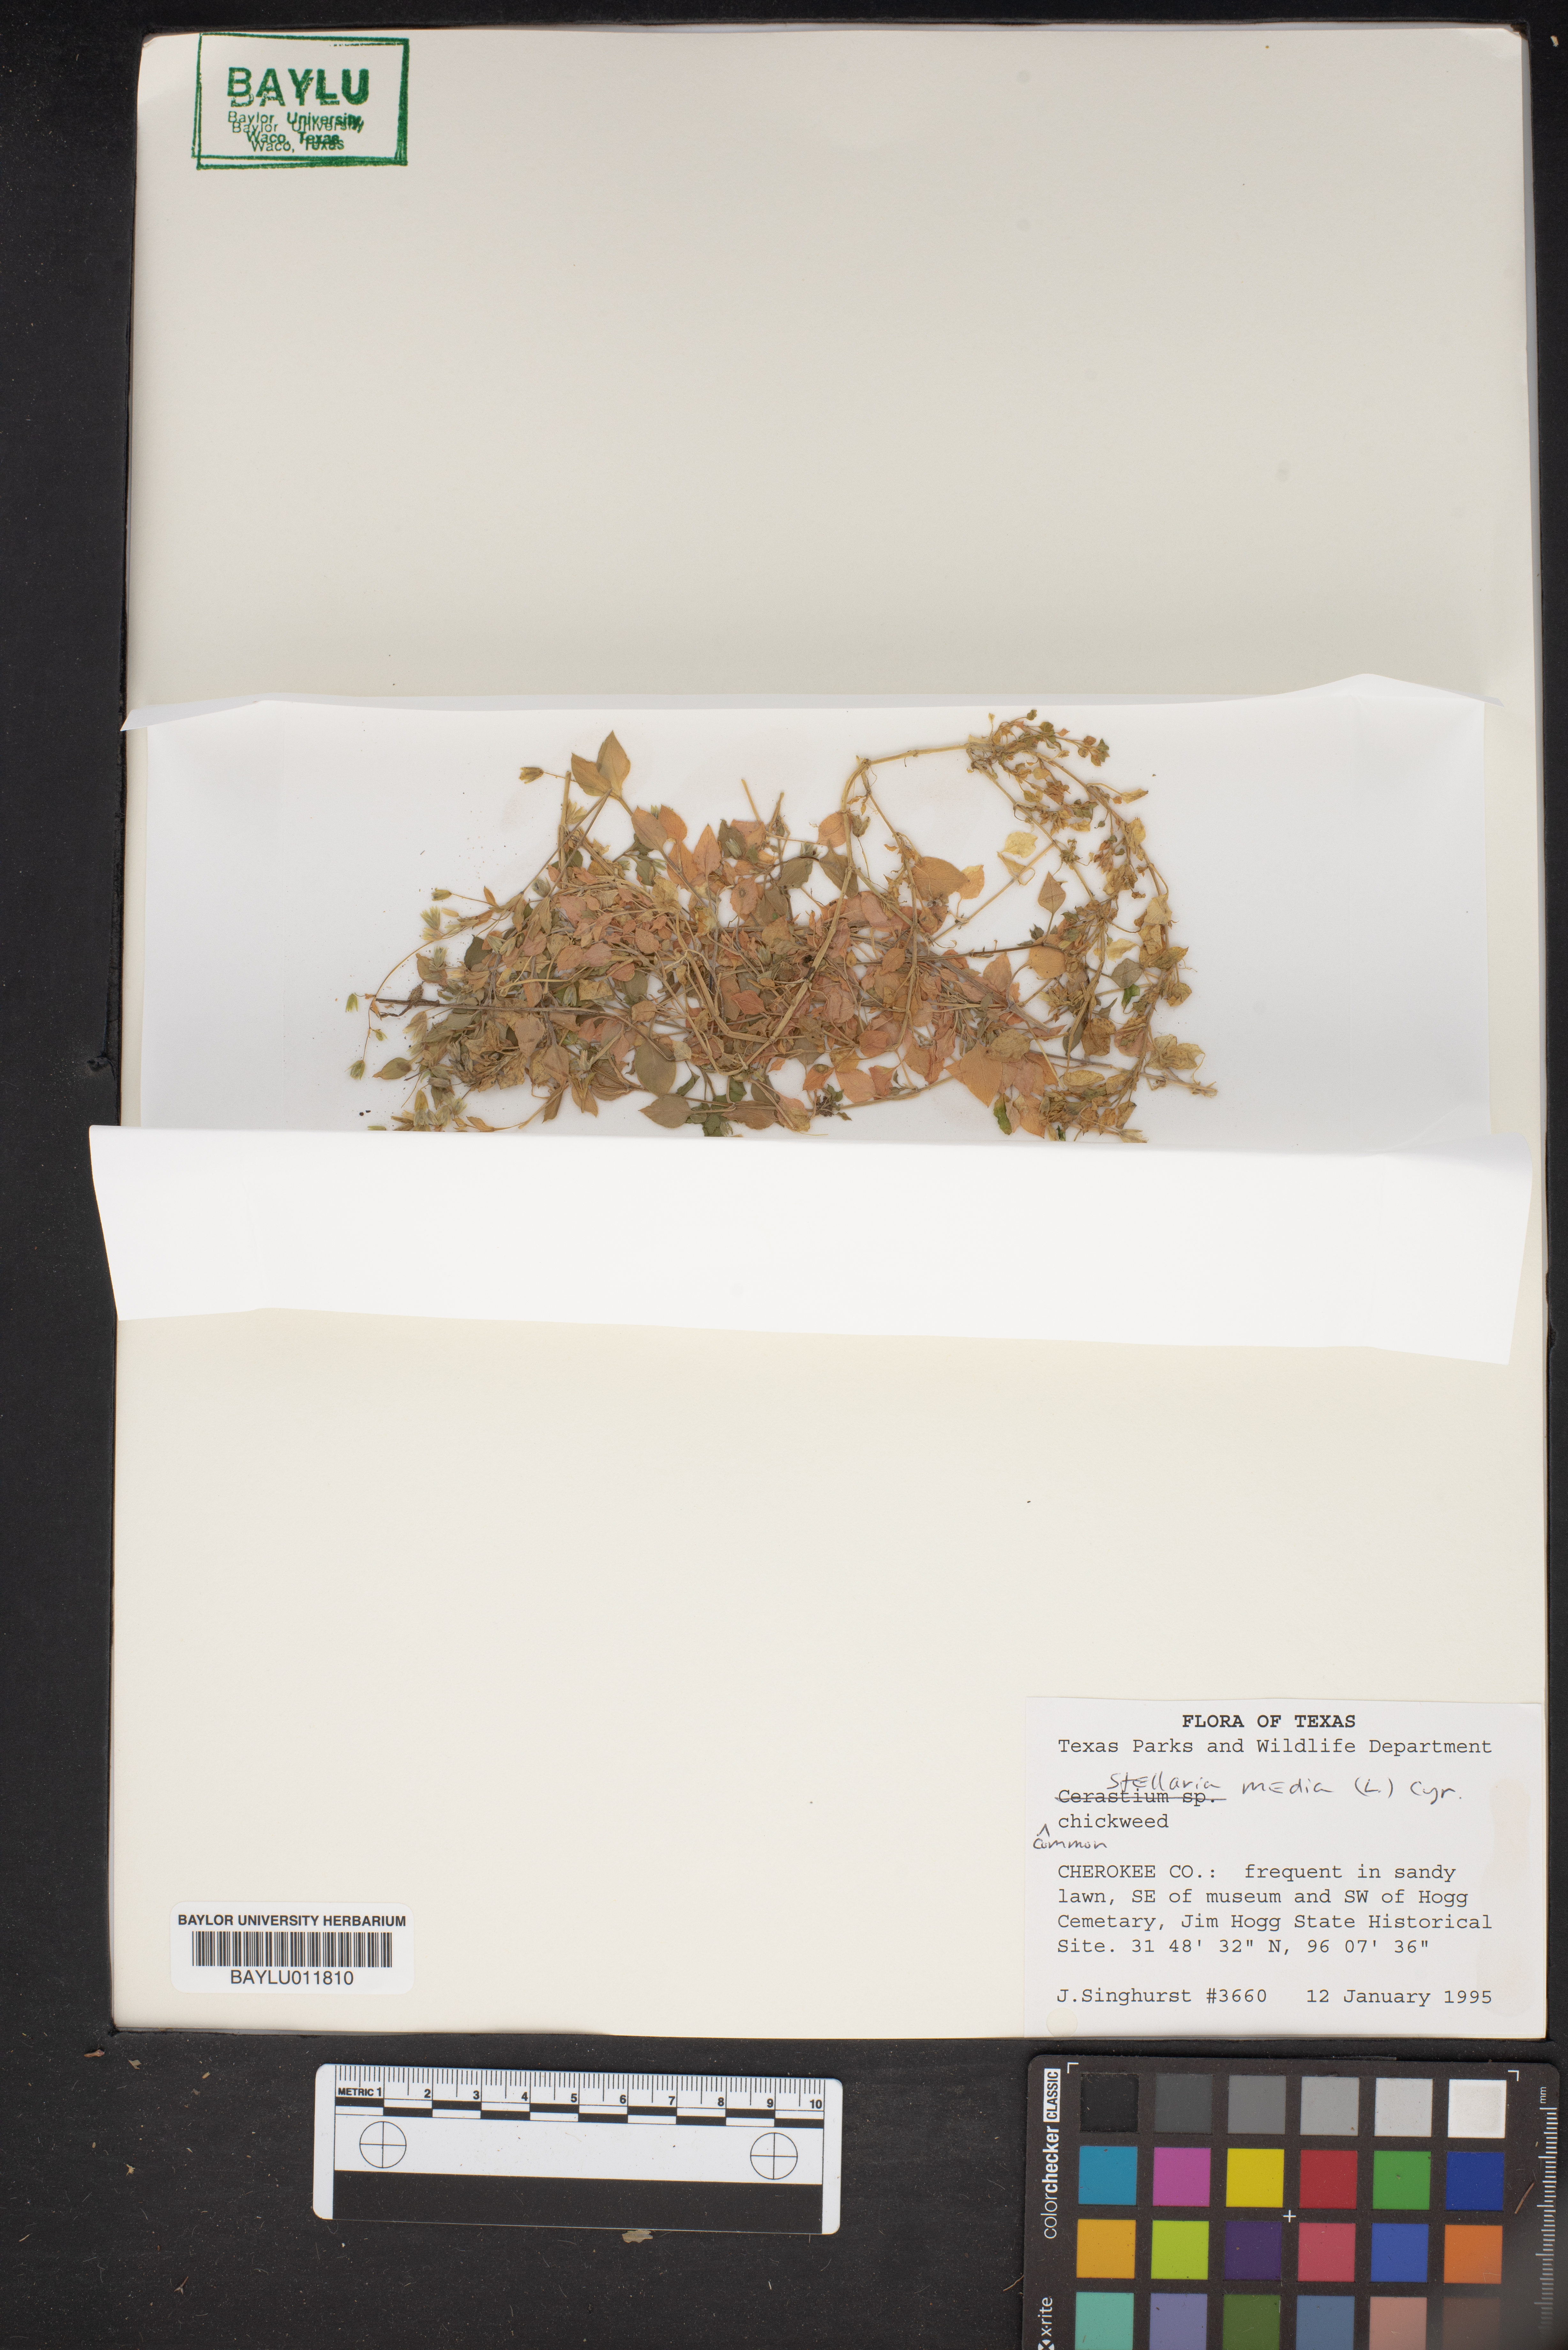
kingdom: Plantae
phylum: Tracheophyta
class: Magnoliopsida
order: Caryophyllales
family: Caryophyllaceae
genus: Stellaria
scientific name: Stellaria media
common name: Common chickweed
